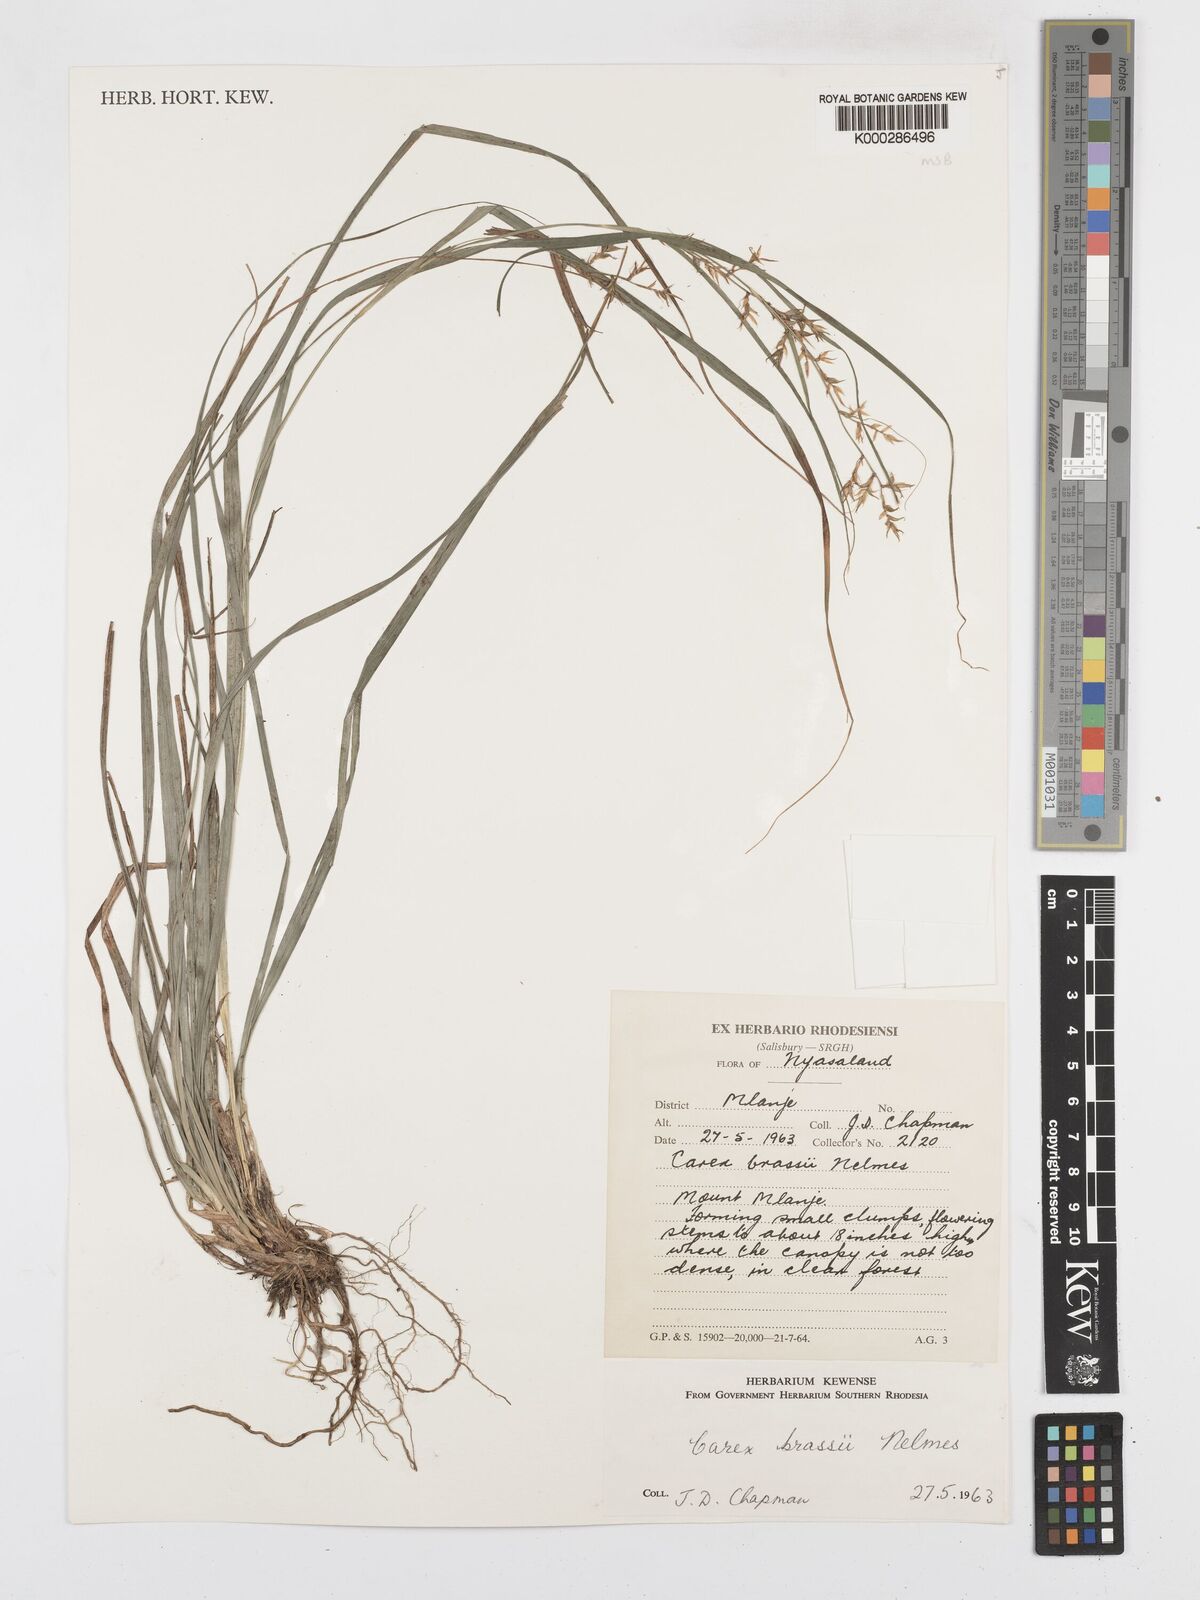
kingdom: Plantae
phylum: Tracheophyta
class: Liliopsida
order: Poales
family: Cyperaceae
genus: Carex
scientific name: Carex chlorosaccus
